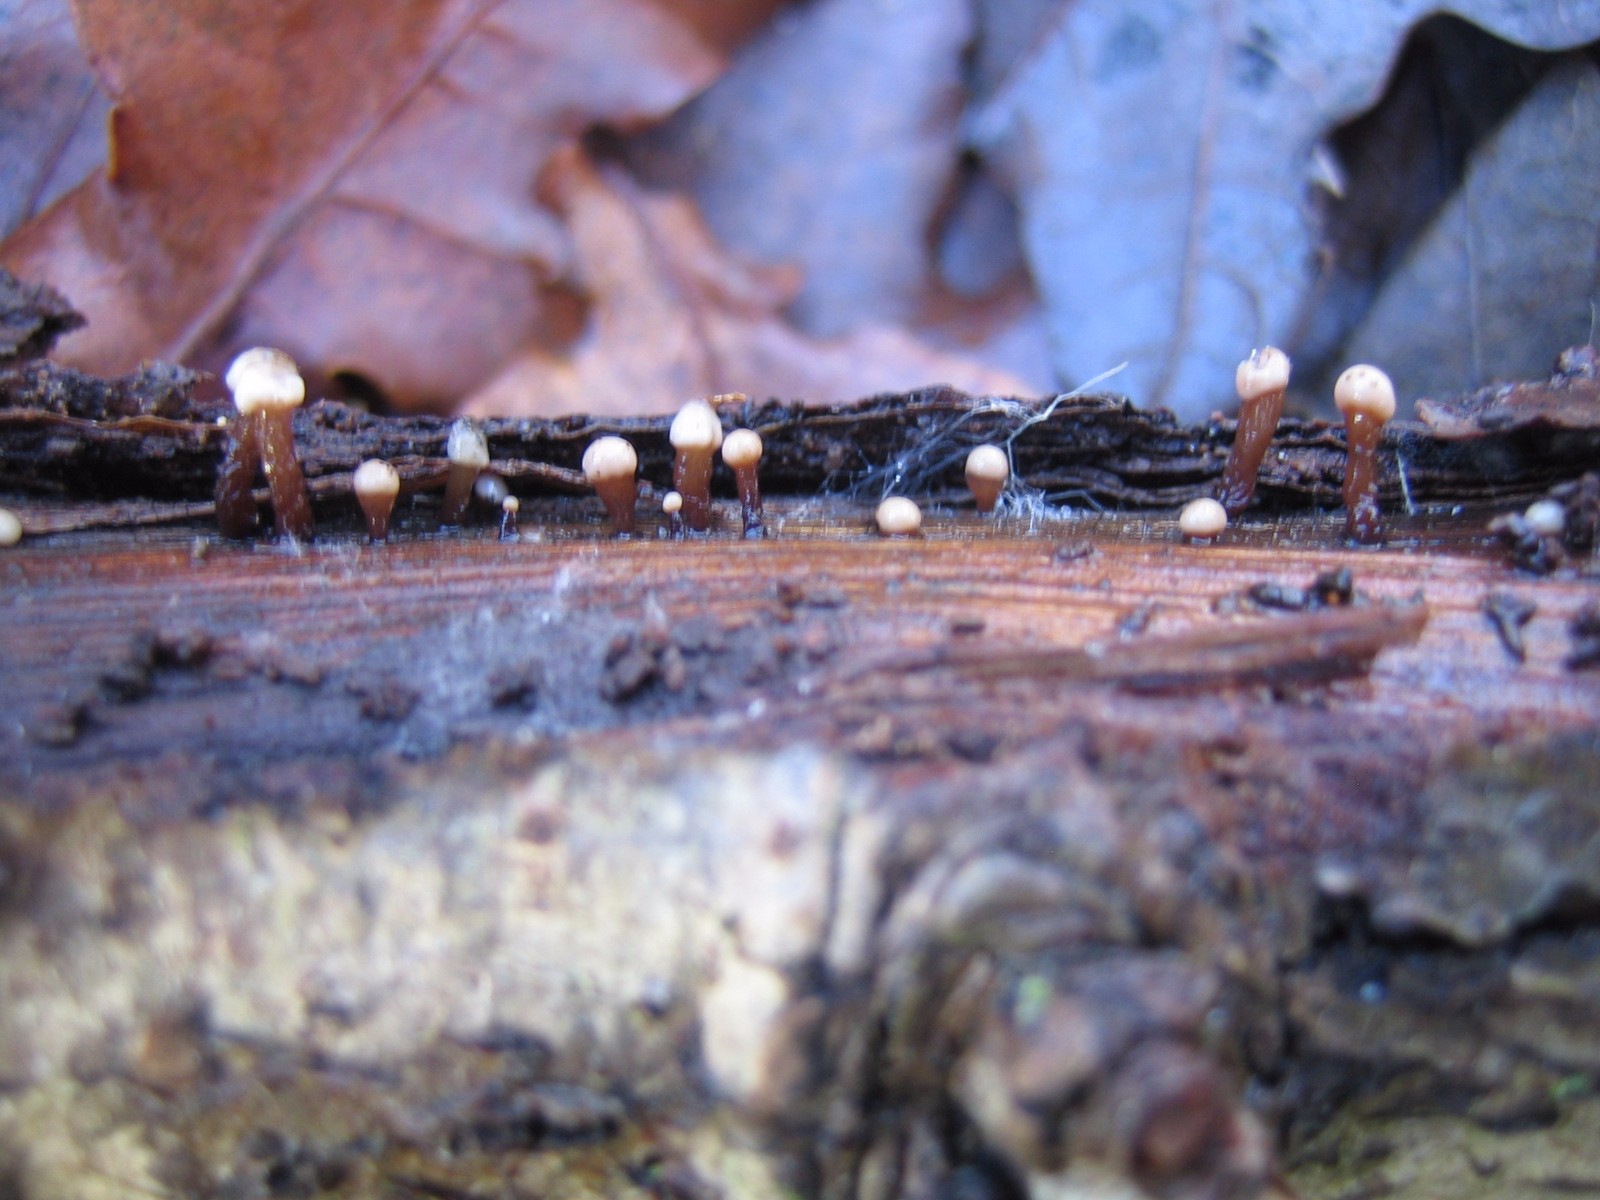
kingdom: Fungi
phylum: Ascomycota
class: Leotiomycetes
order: Helotiales
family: Gelatinodiscaceae
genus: Ascocoryne
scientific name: Ascocoryne albida
